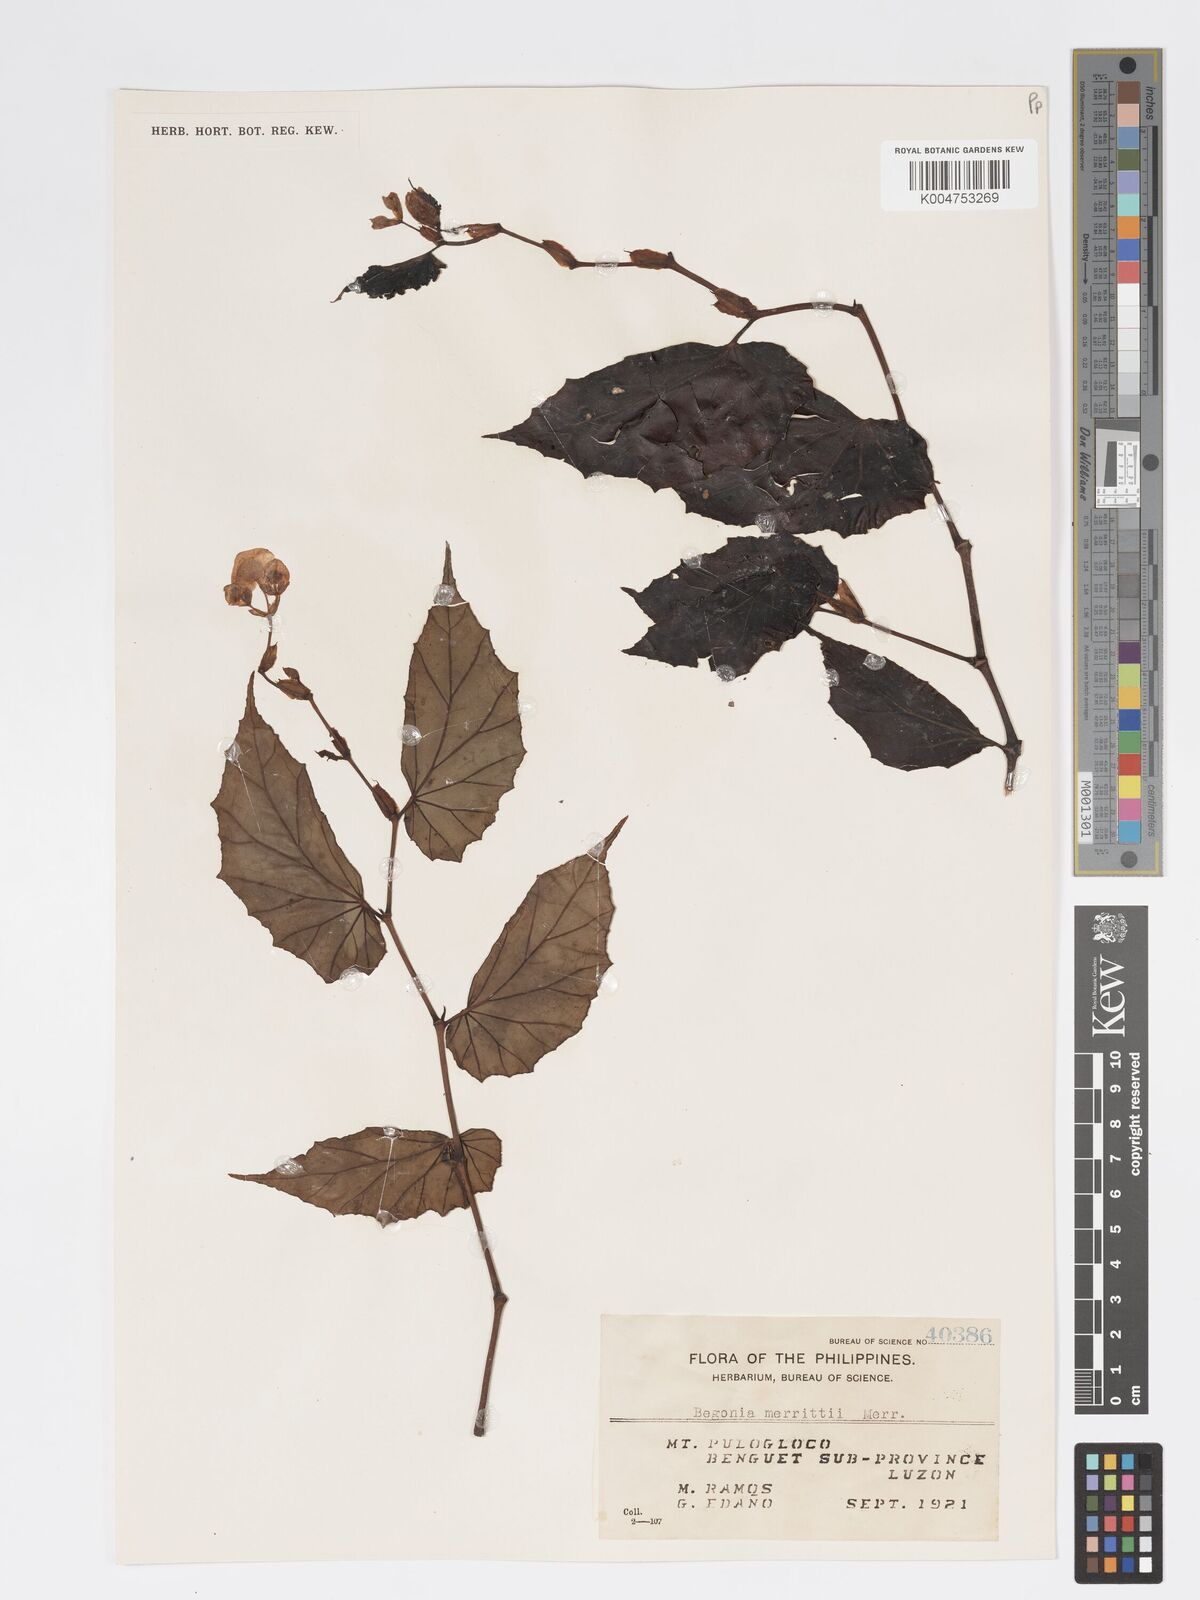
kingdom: Plantae
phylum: Tracheophyta
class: Magnoliopsida
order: Cucurbitales
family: Begoniaceae
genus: Begonia
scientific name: Begonia merrittii
